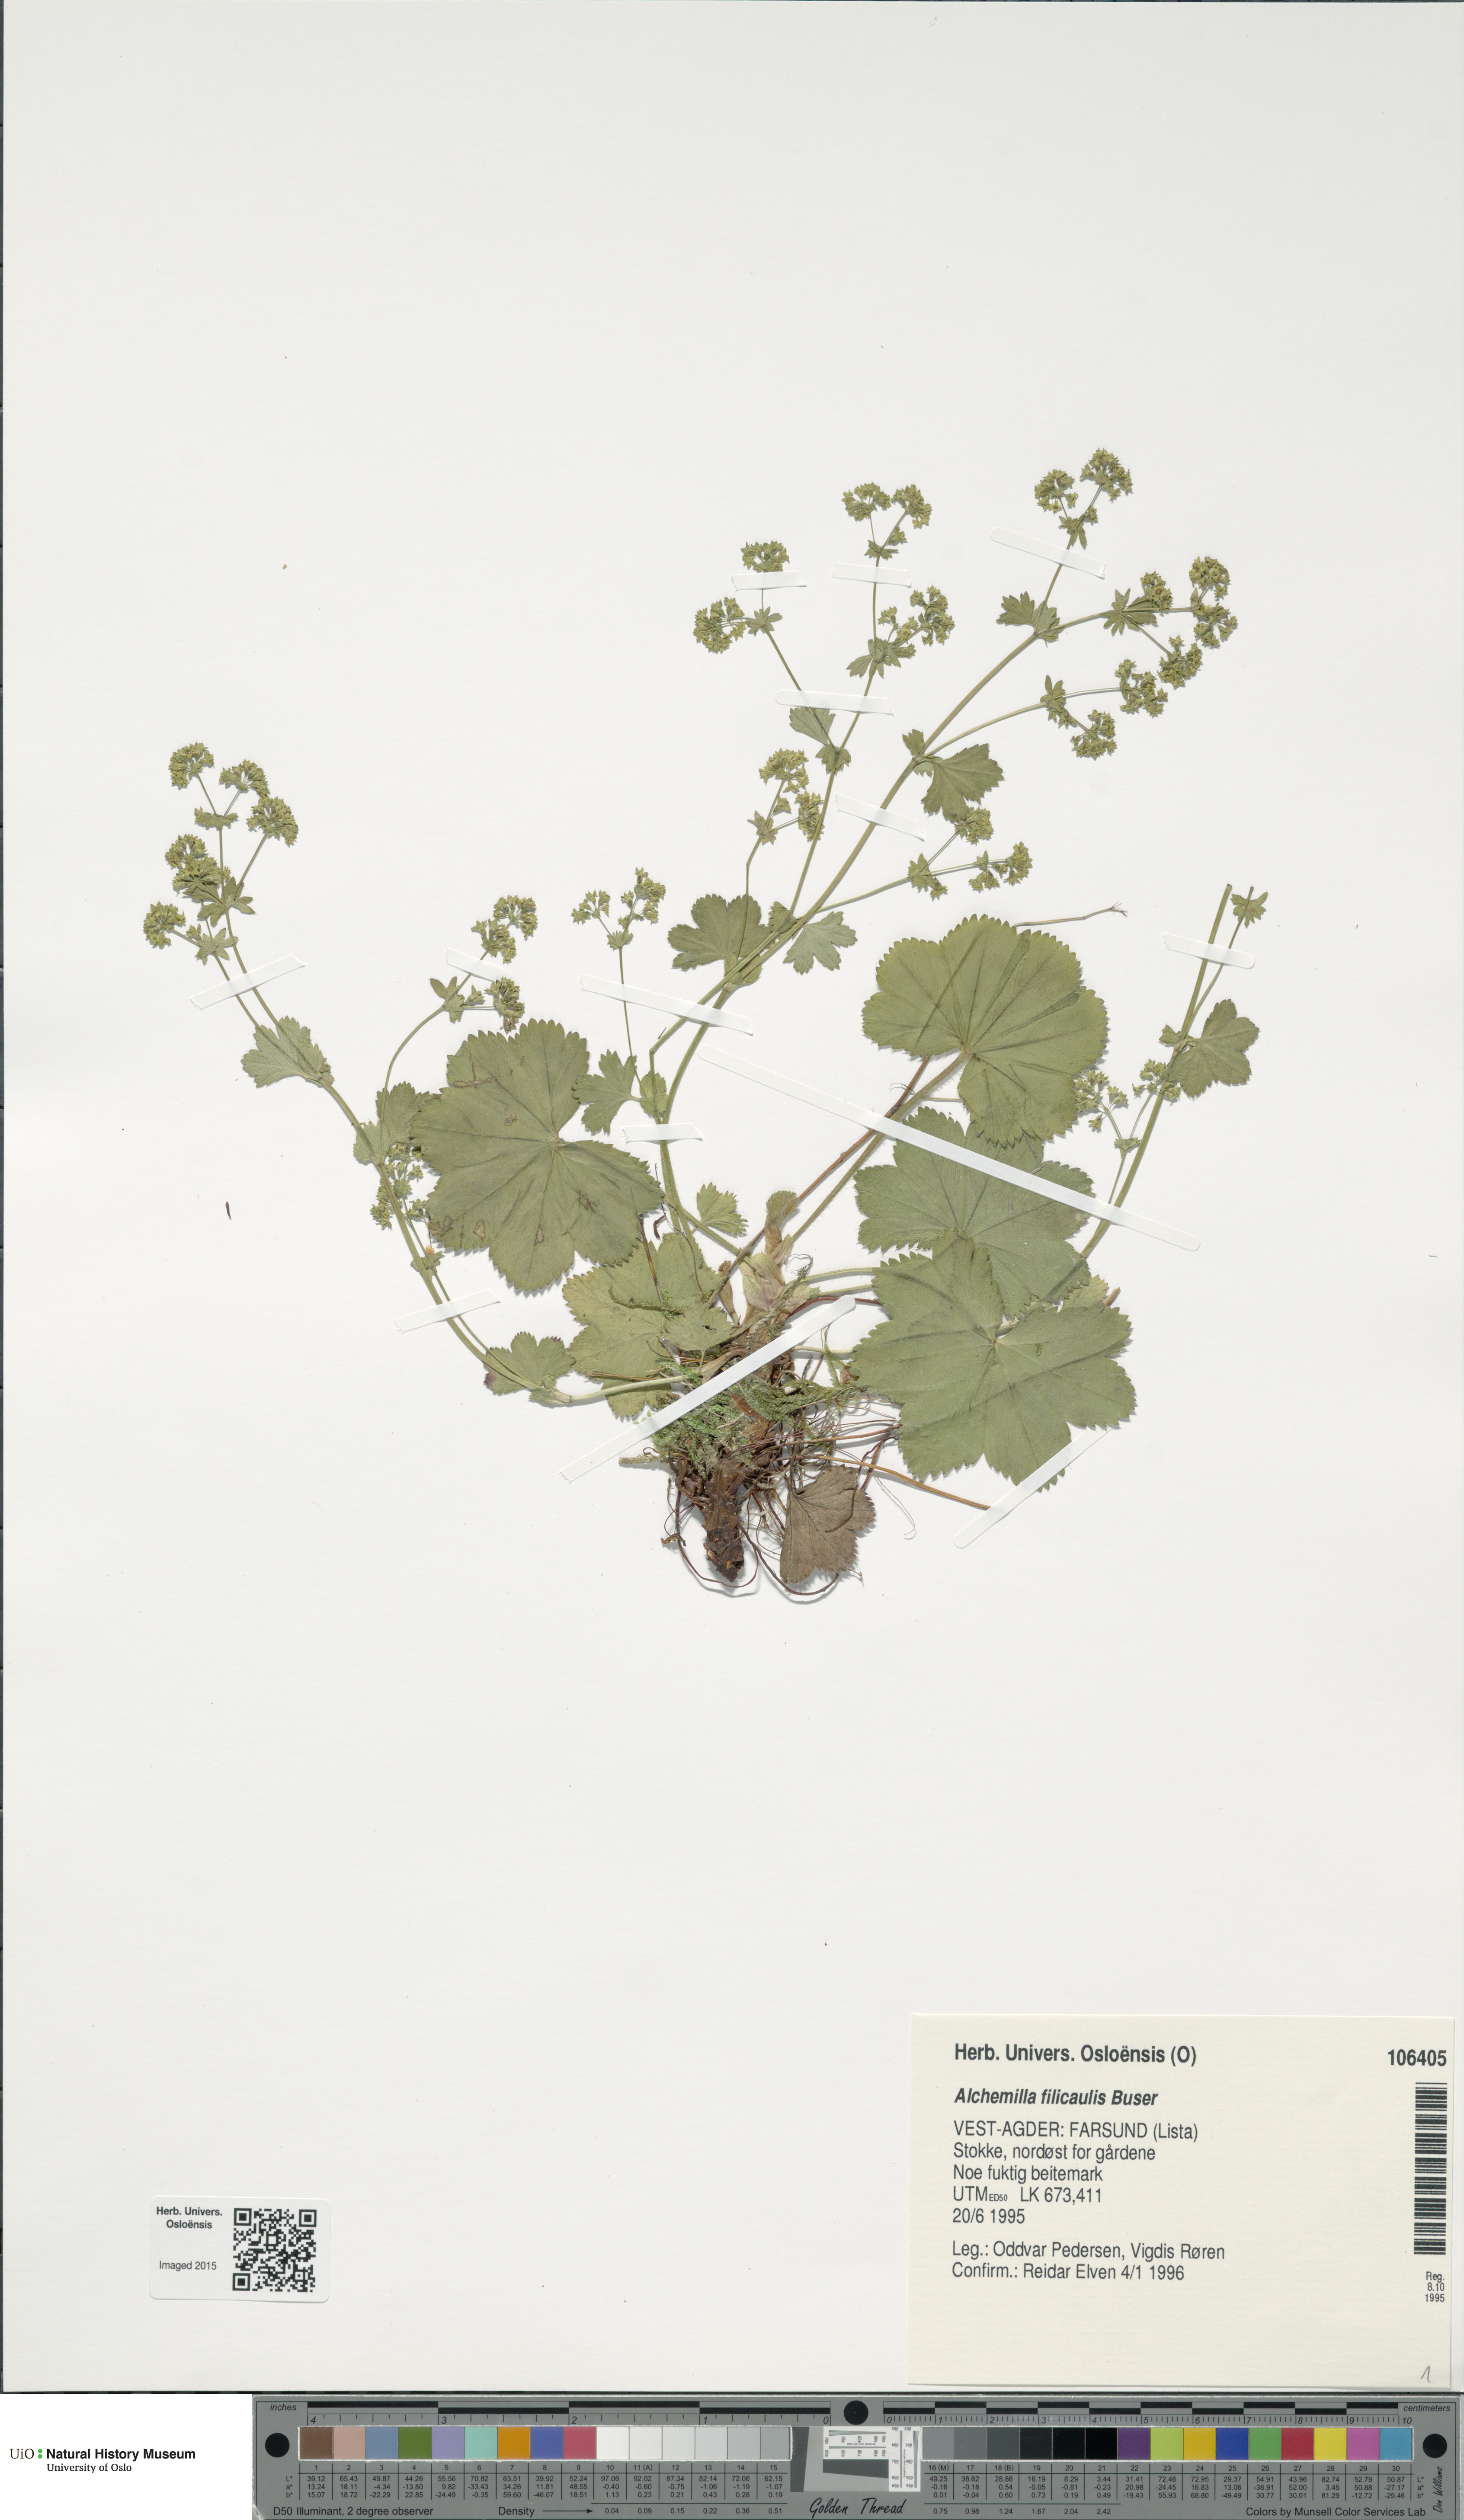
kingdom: Plantae
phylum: Tracheophyta
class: Magnoliopsida
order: Rosales
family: Rosaceae
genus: Alchemilla
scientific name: Alchemilla filicaulis
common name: Hairy lady's-mantle
